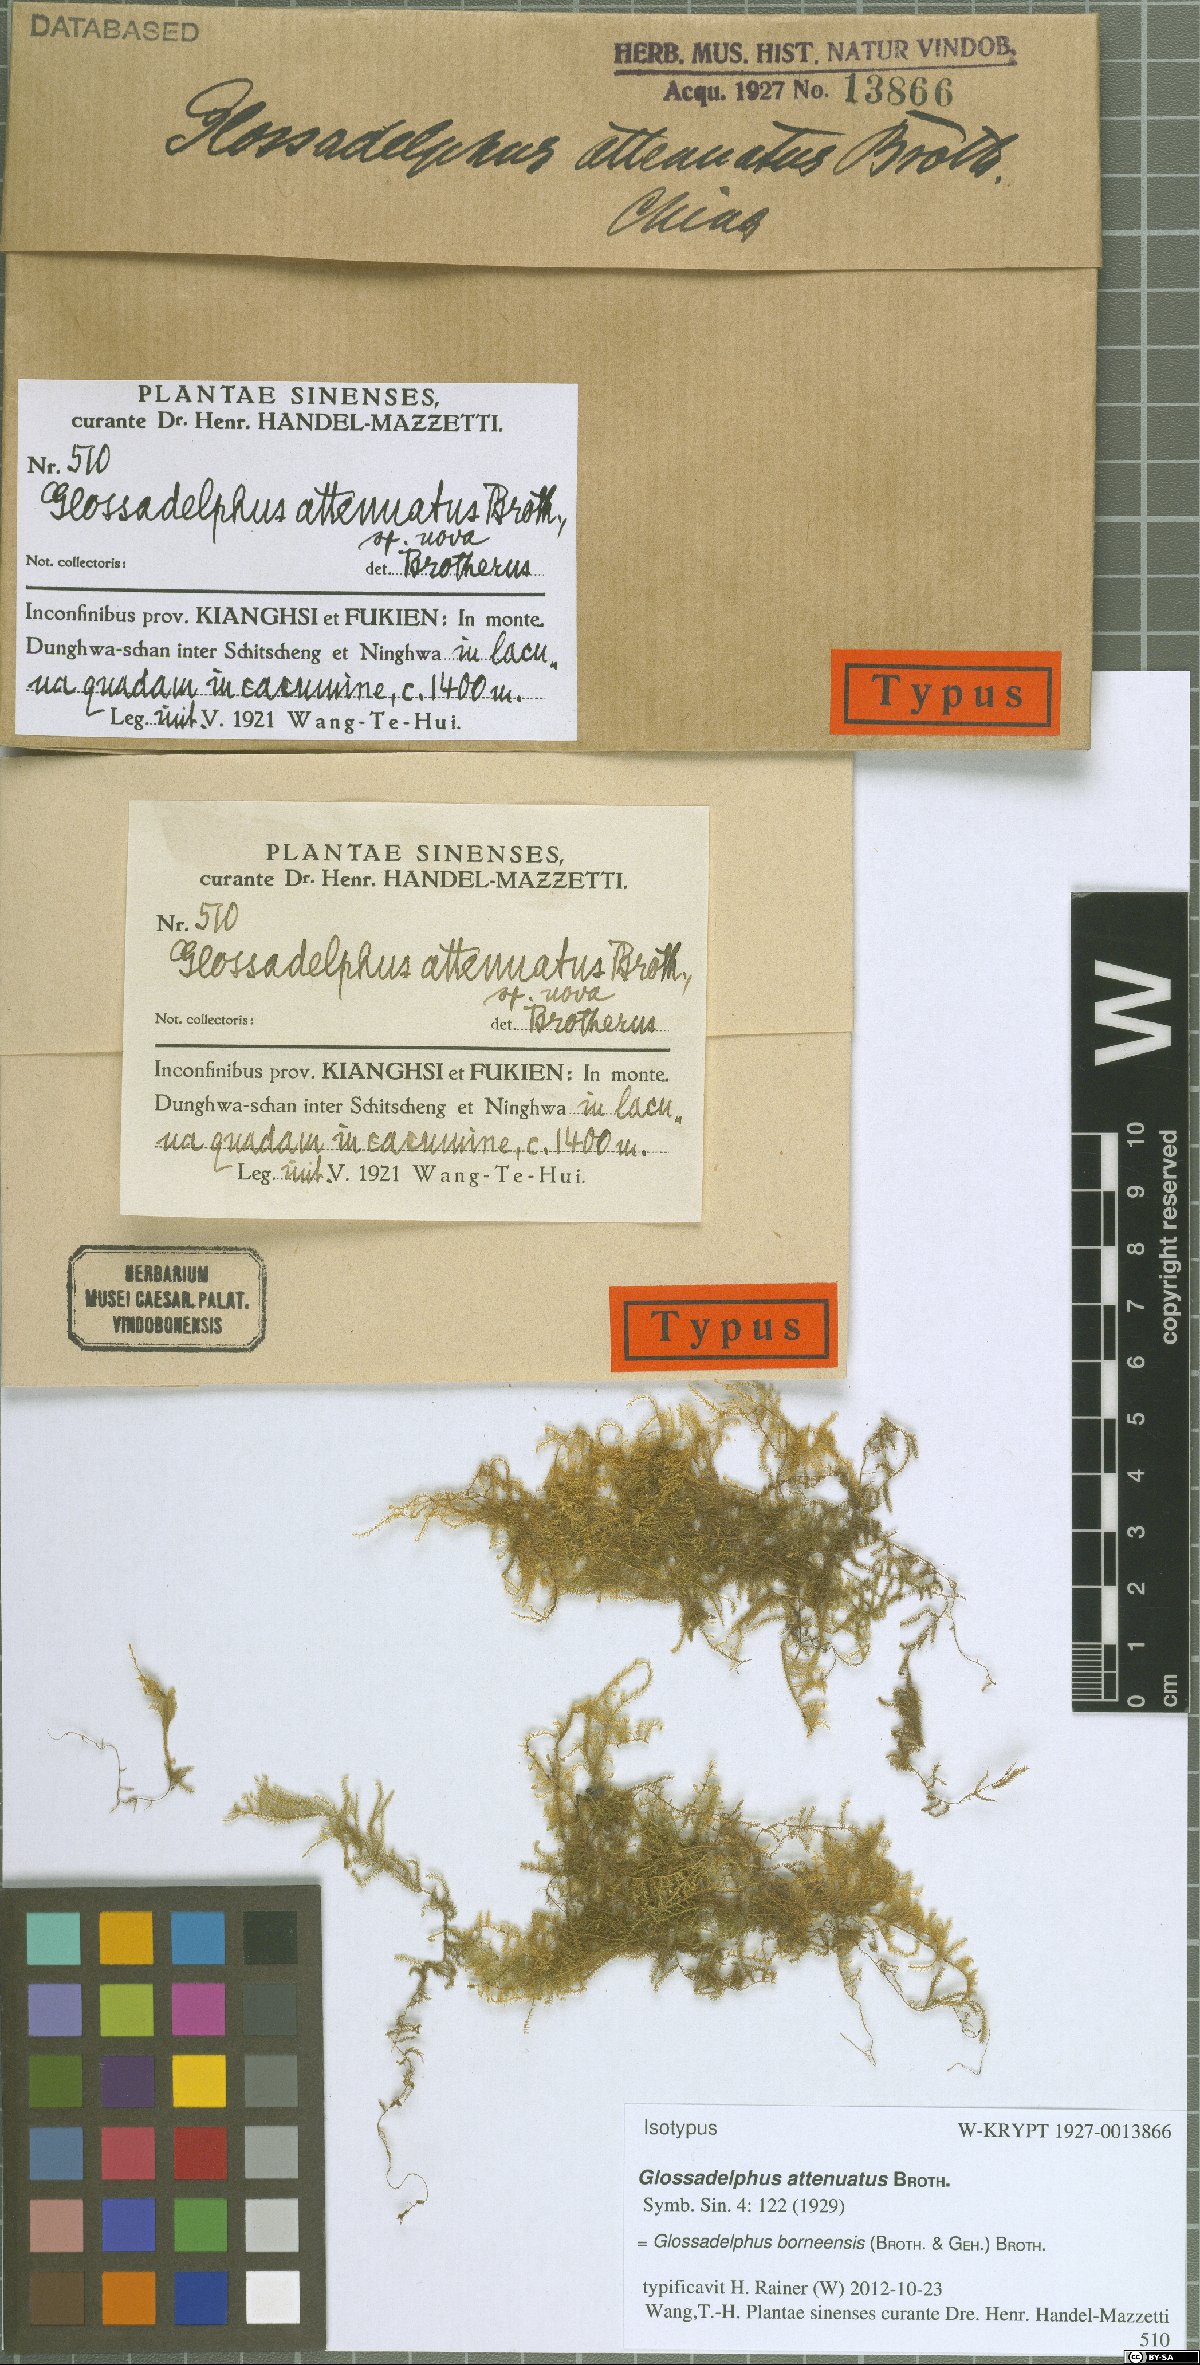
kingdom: Plantae
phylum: Bryophyta
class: Bryopsida
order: Hypnales
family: Hypnaceae
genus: Ectropothecium
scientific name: Ectropothecium cyperoides
